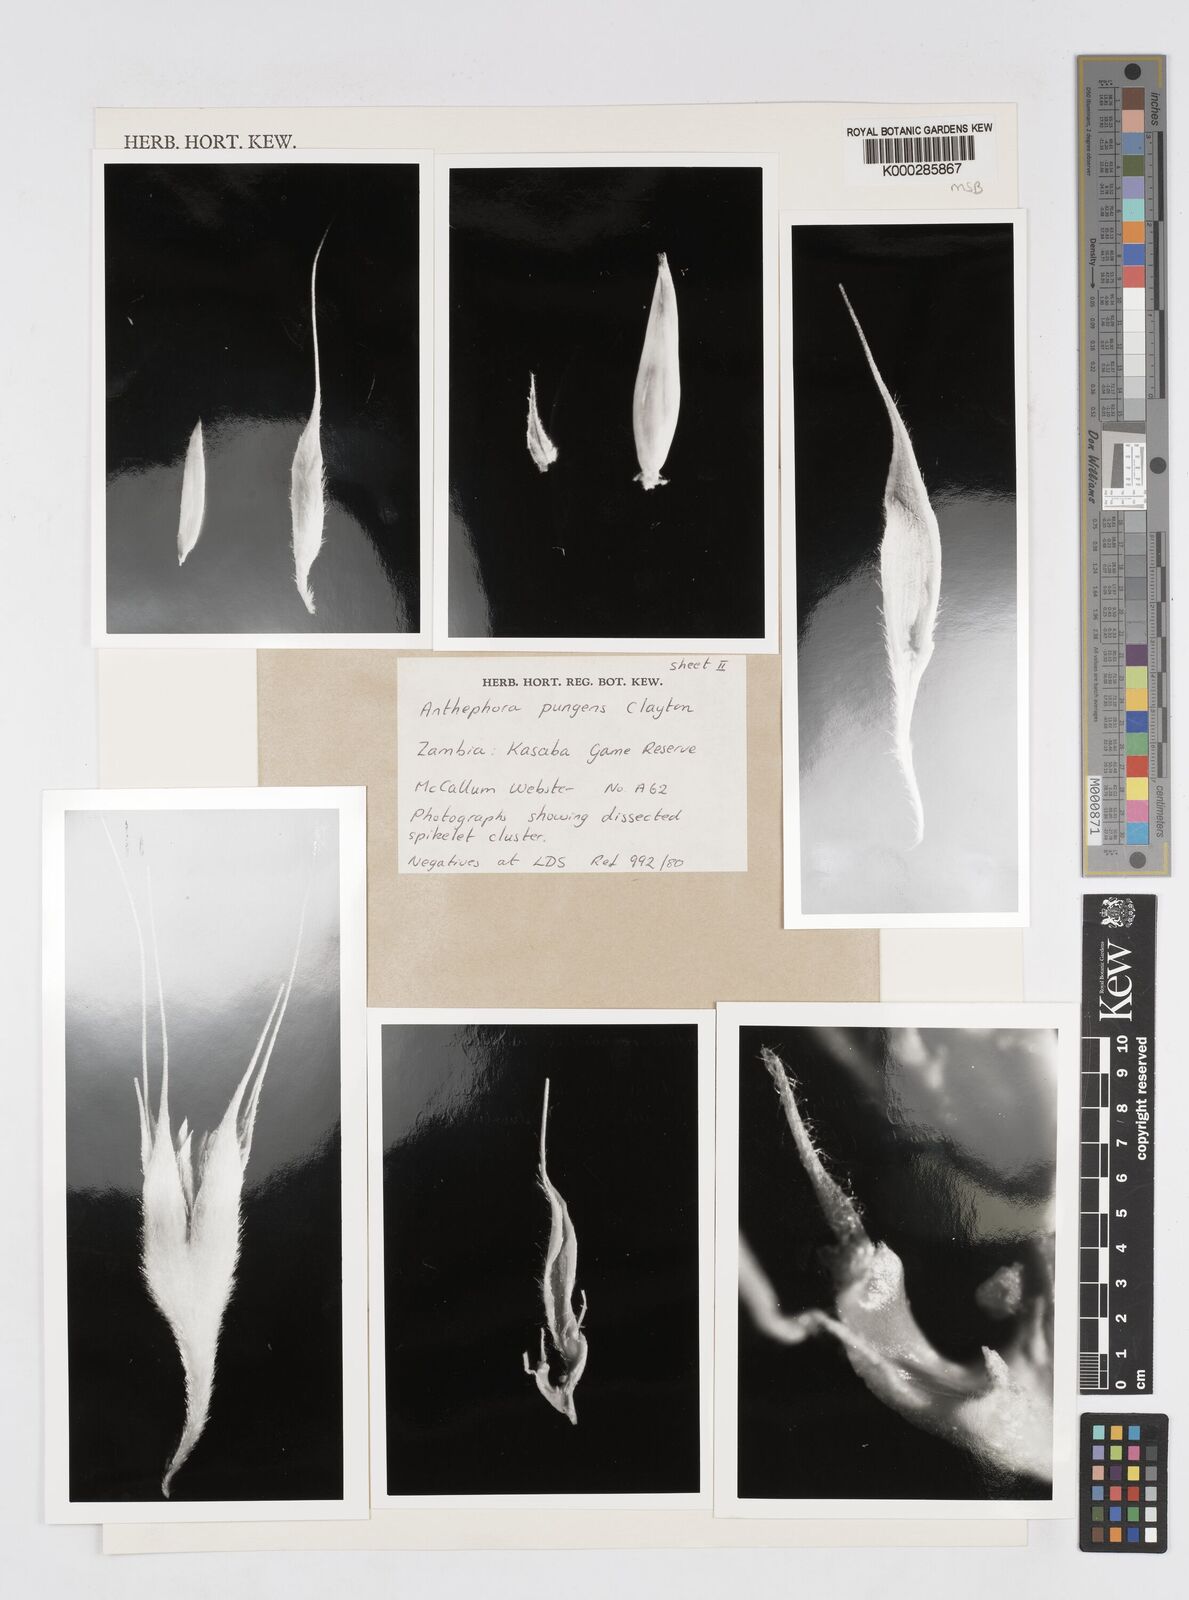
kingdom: Plantae
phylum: Tracheophyta
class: Liliopsida
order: Poales
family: Poaceae
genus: Anthephora
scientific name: Anthephora pungens
